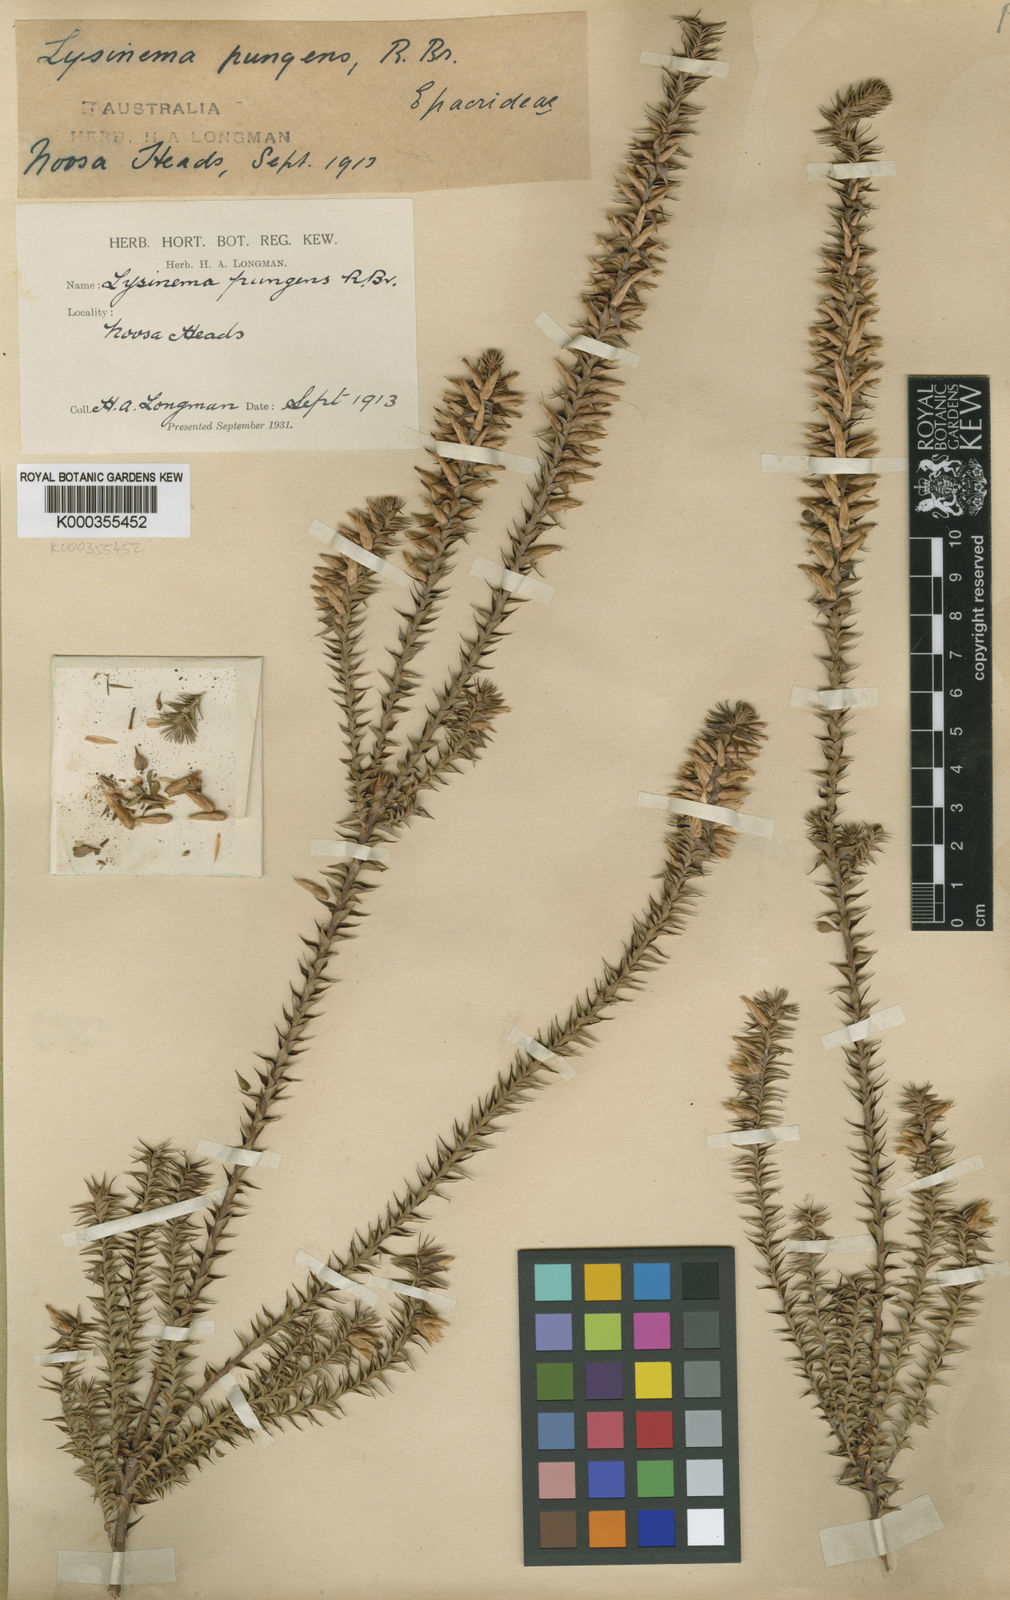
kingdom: Plantae
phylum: Tracheophyta
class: Magnoliopsida
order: Ericales
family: Ericaceae
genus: Woollsia
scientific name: Woollsia pungens
